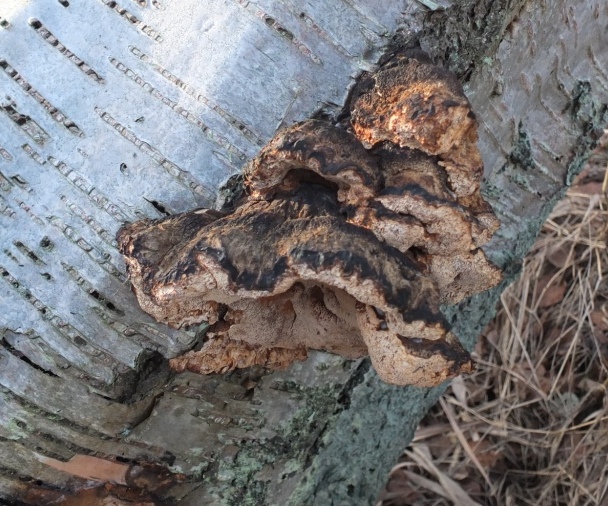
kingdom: Fungi
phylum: Basidiomycota
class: Agaricomycetes
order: Polyporales
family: Ischnodermataceae
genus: Ischnoderma
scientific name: Ischnoderma resinosum
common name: løv-tjæreporesvamp
